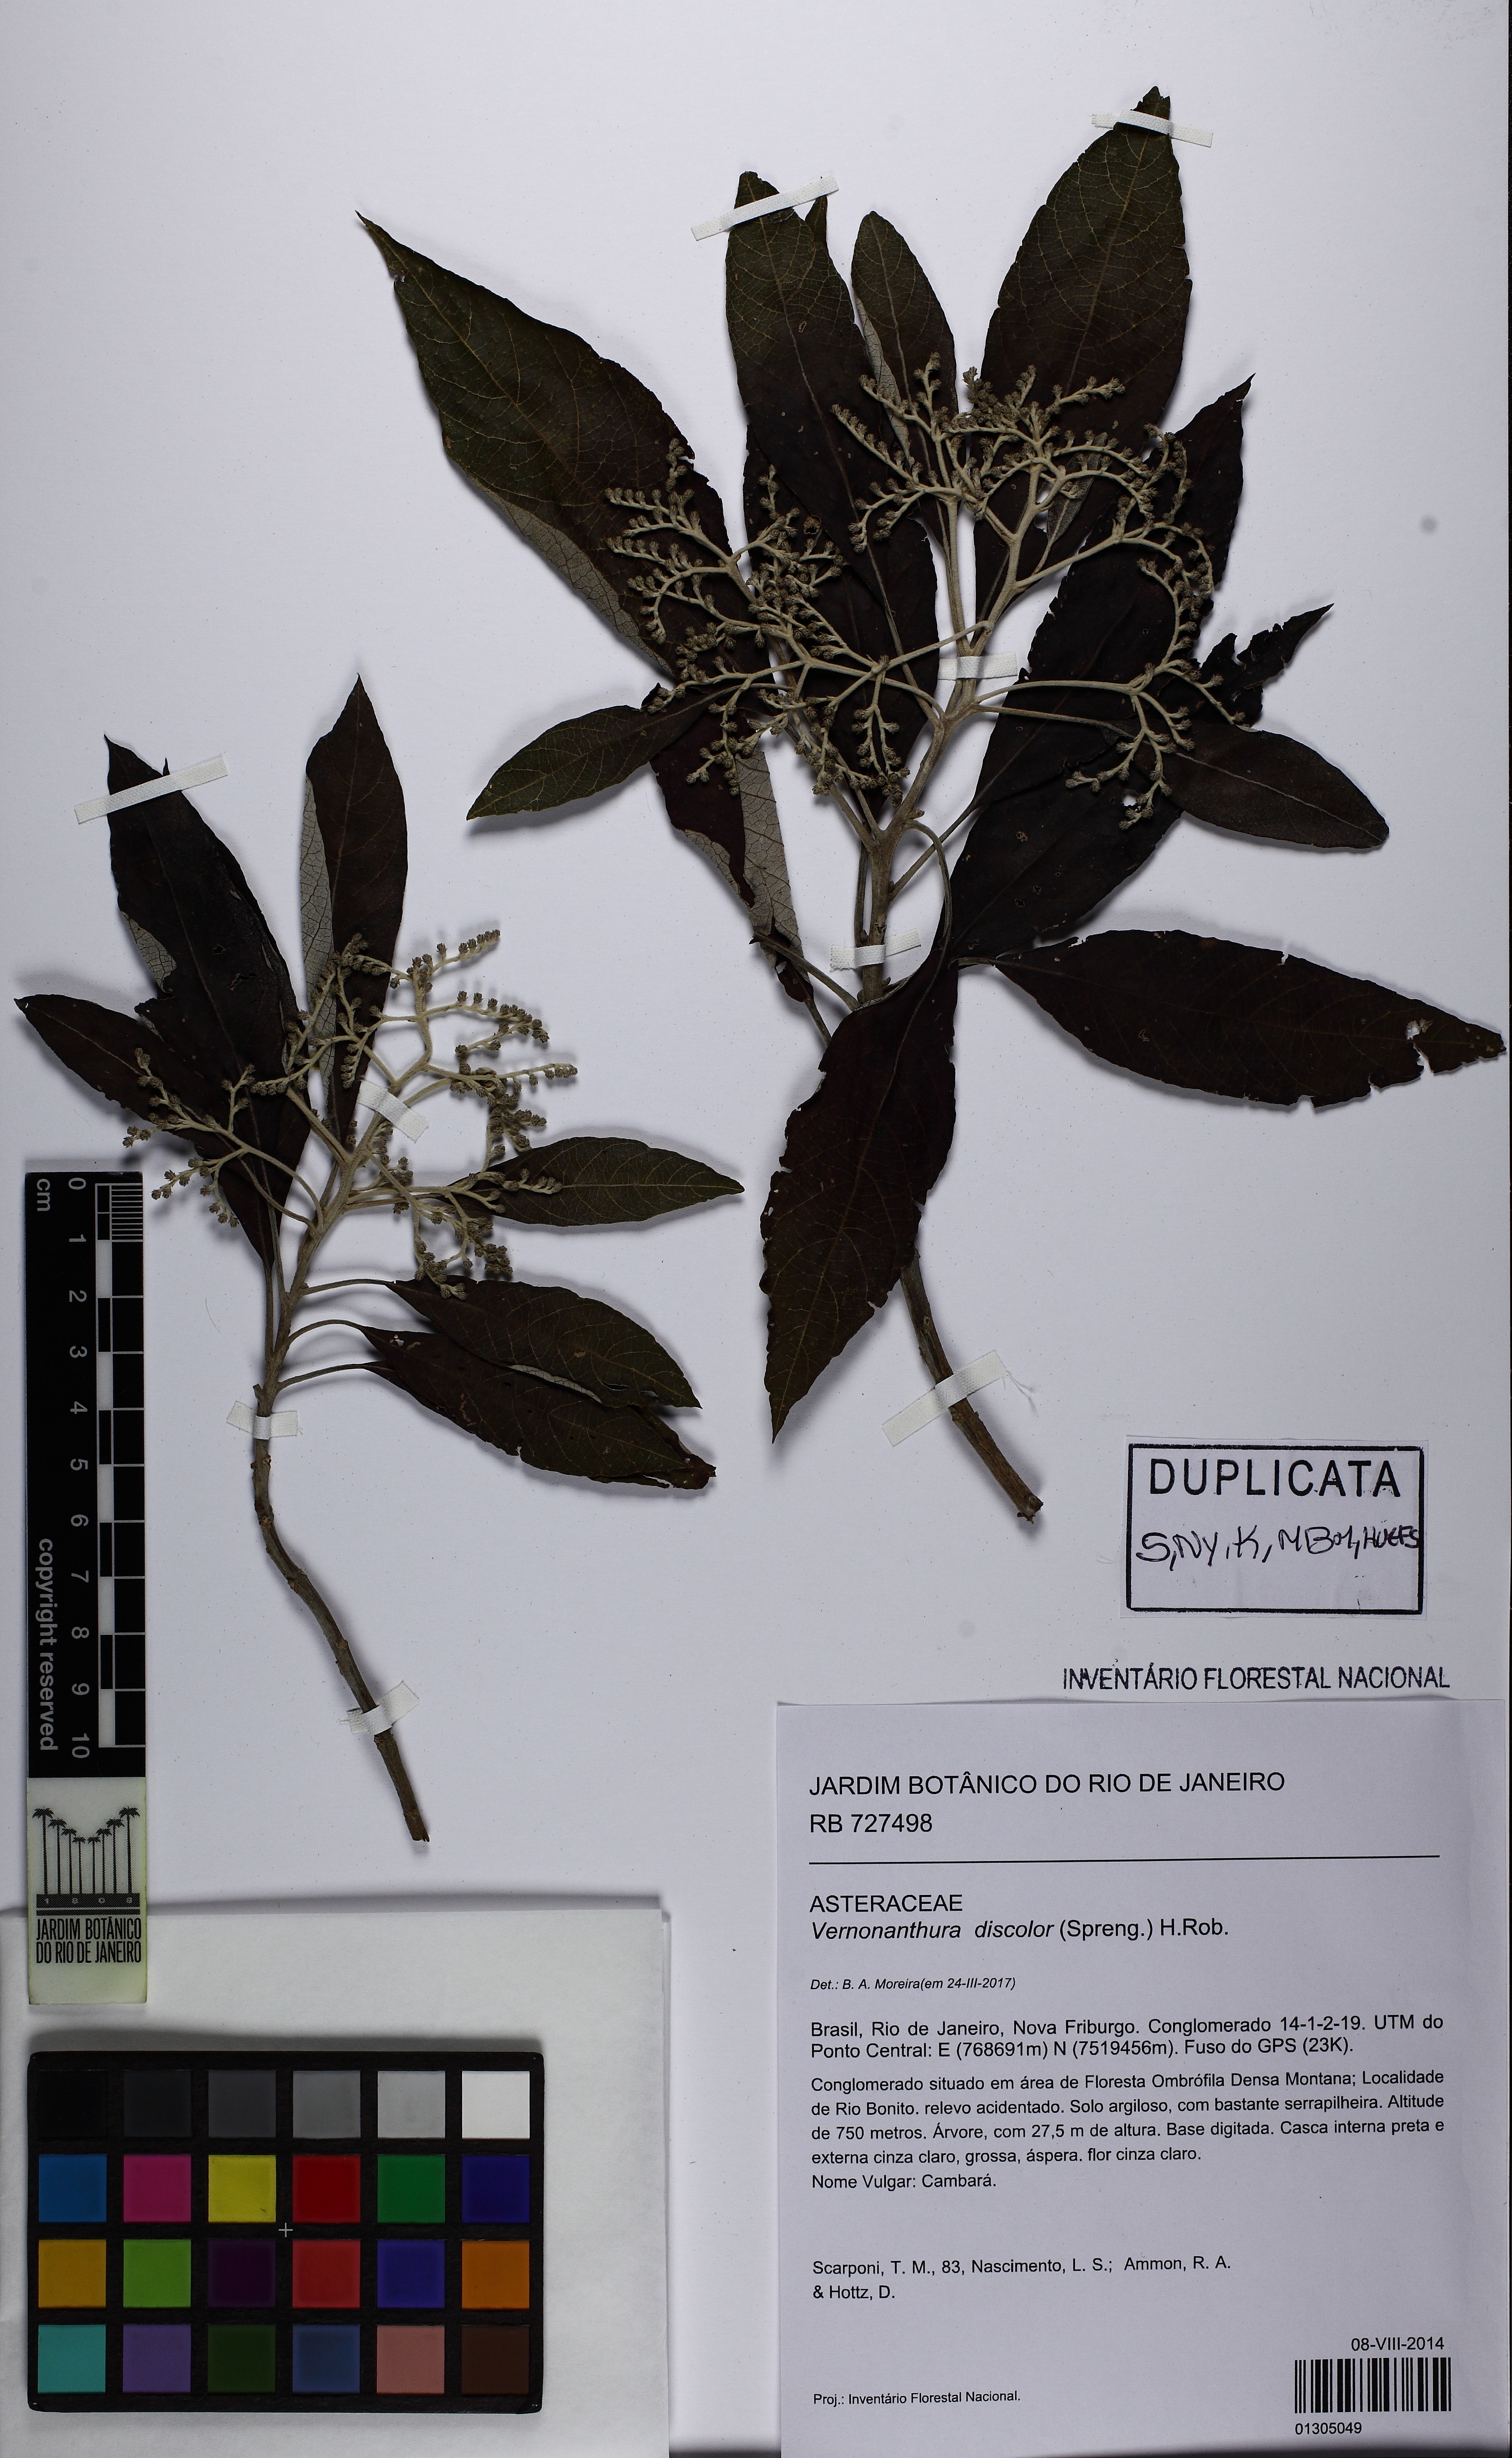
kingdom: Plantae
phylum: Tracheophyta
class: Magnoliopsida
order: Asterales
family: Asteraceae
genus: Vernonanthura
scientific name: Vernonanthura discolor
